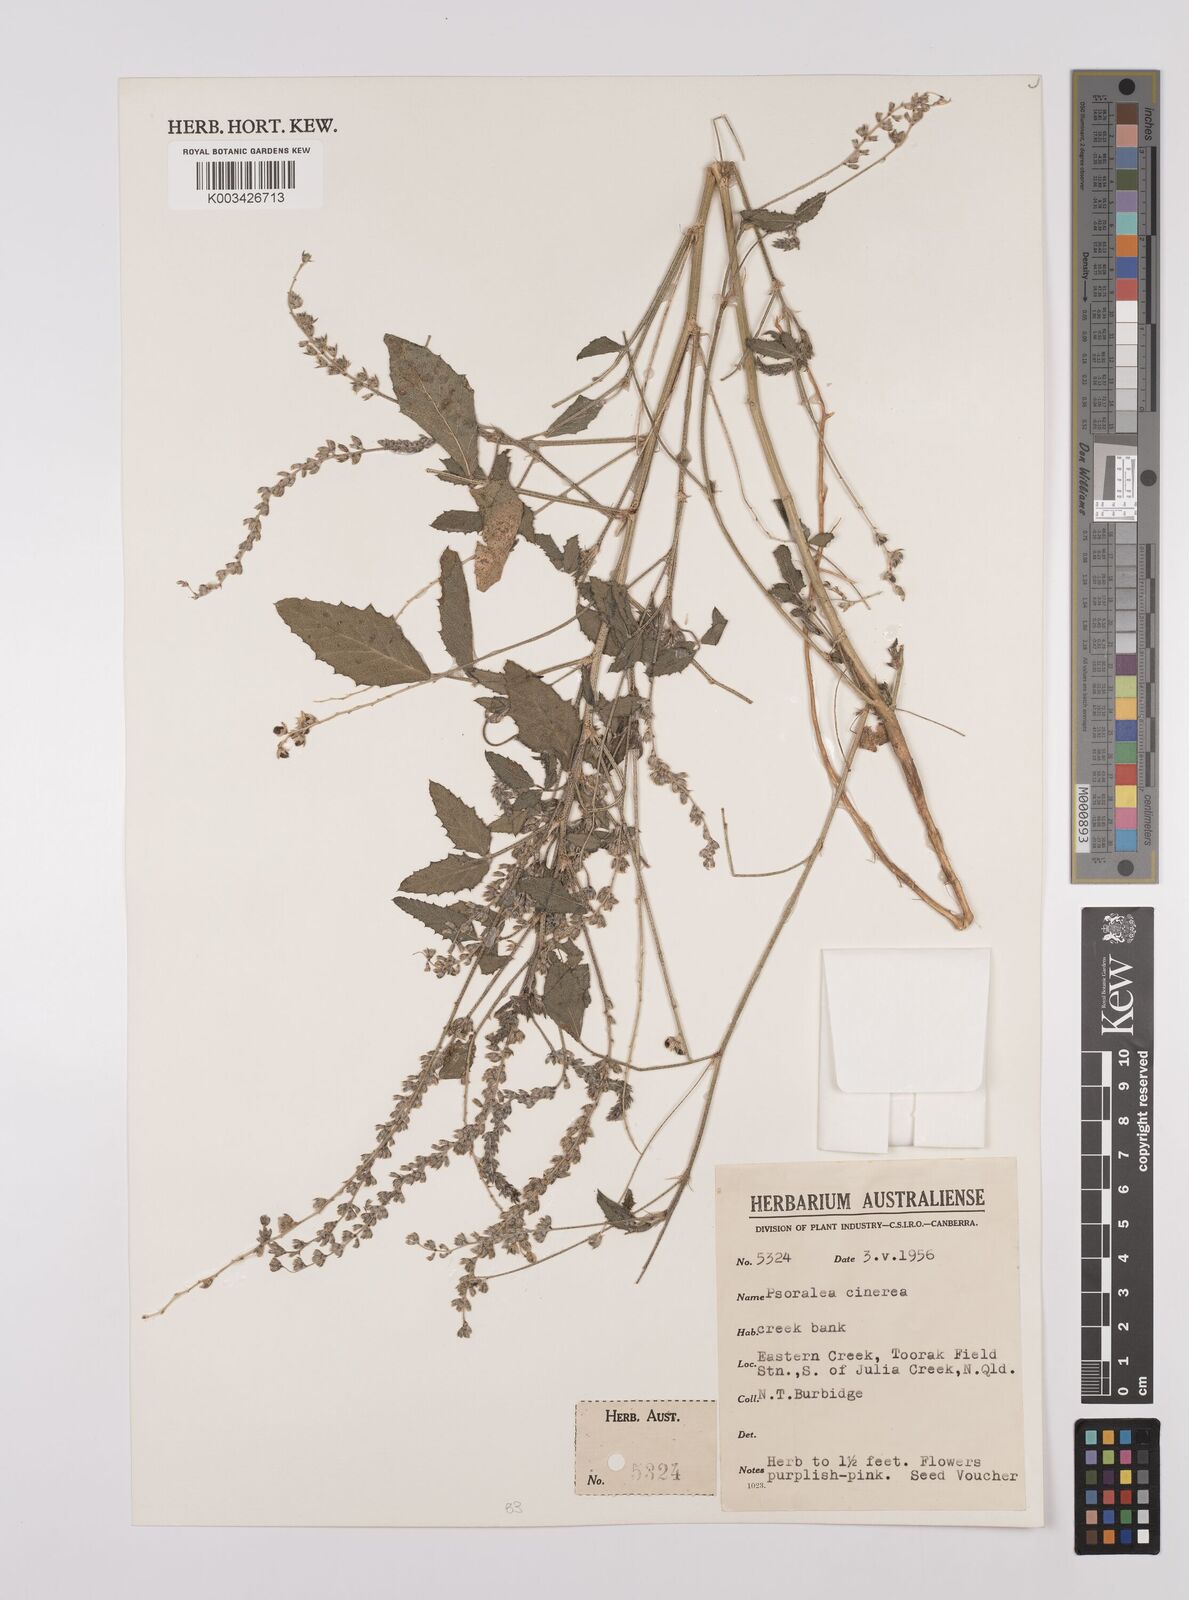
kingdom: Plantae
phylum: Tracheophyta
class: Magnoliopsida
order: Fabales
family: Fabaceae
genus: Cullen
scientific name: Cullen cinereum
